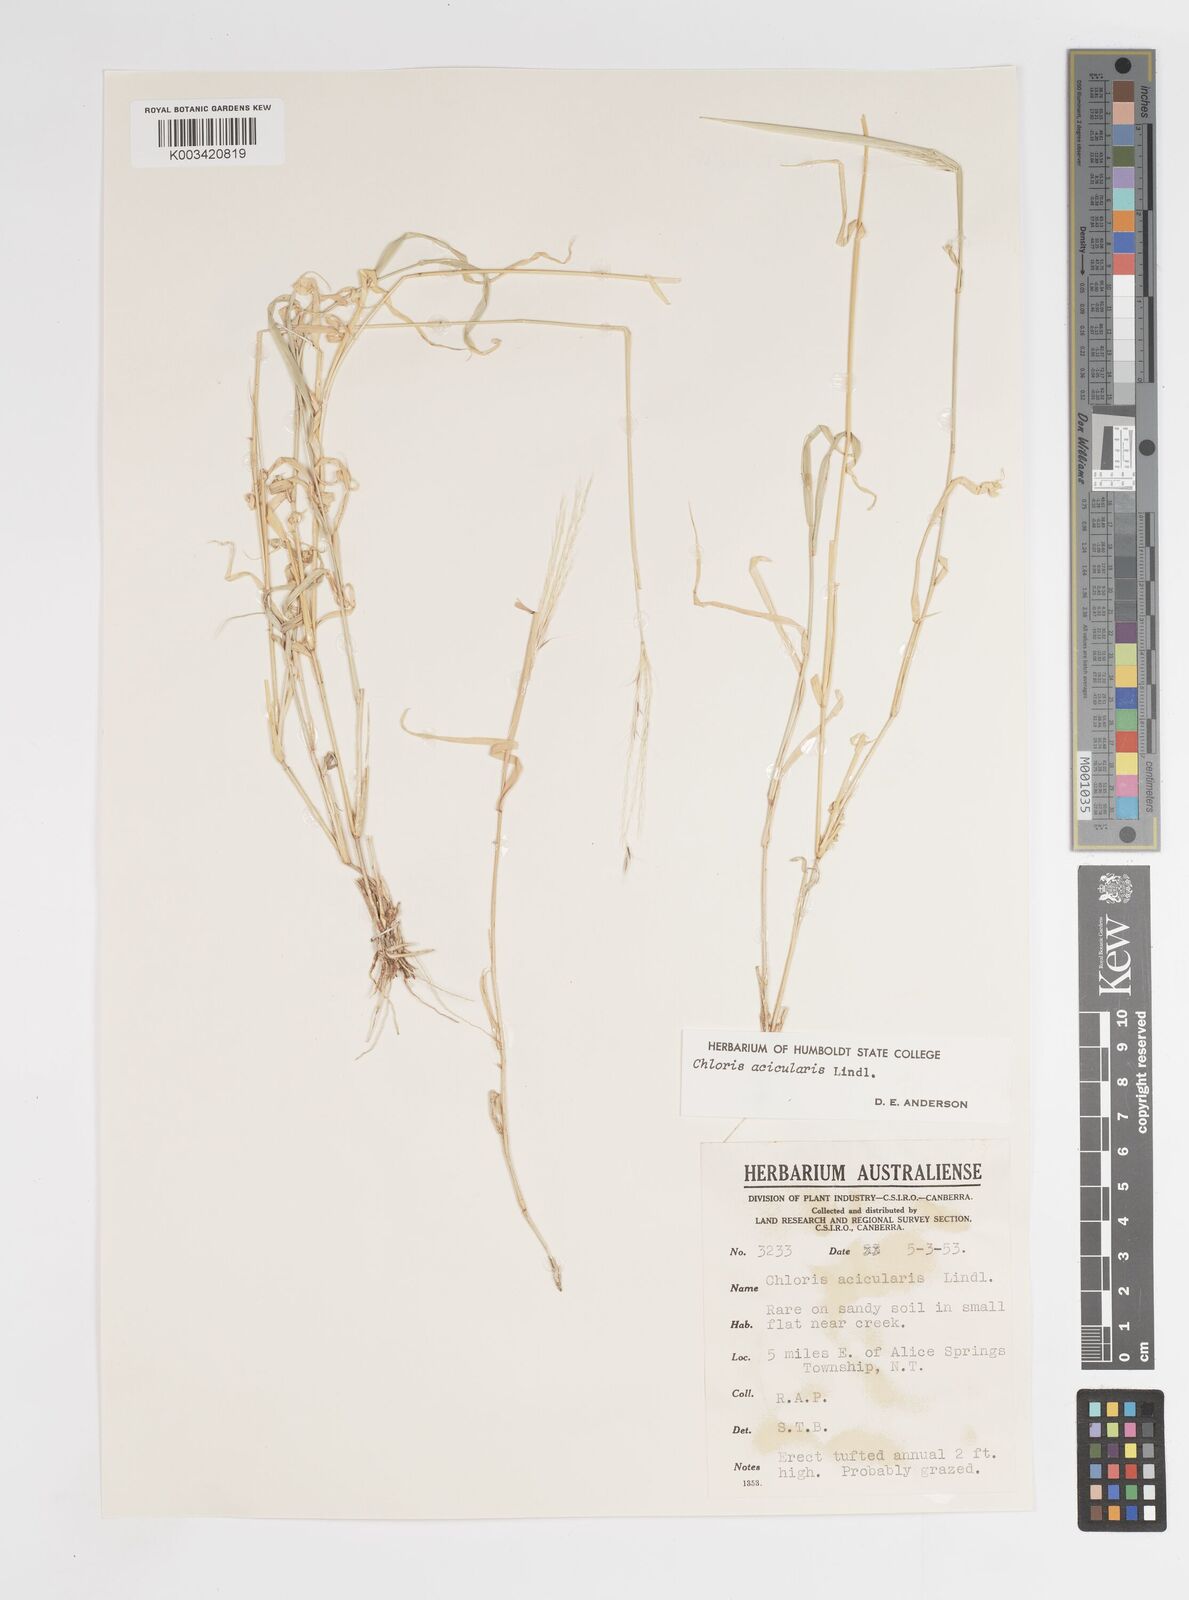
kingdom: Plantae
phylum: Tracheophyta
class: Liliopsida
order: Poales
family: Poaceae
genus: Enteropogon
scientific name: Enteropogon acicularis
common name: Curly windmill grass
